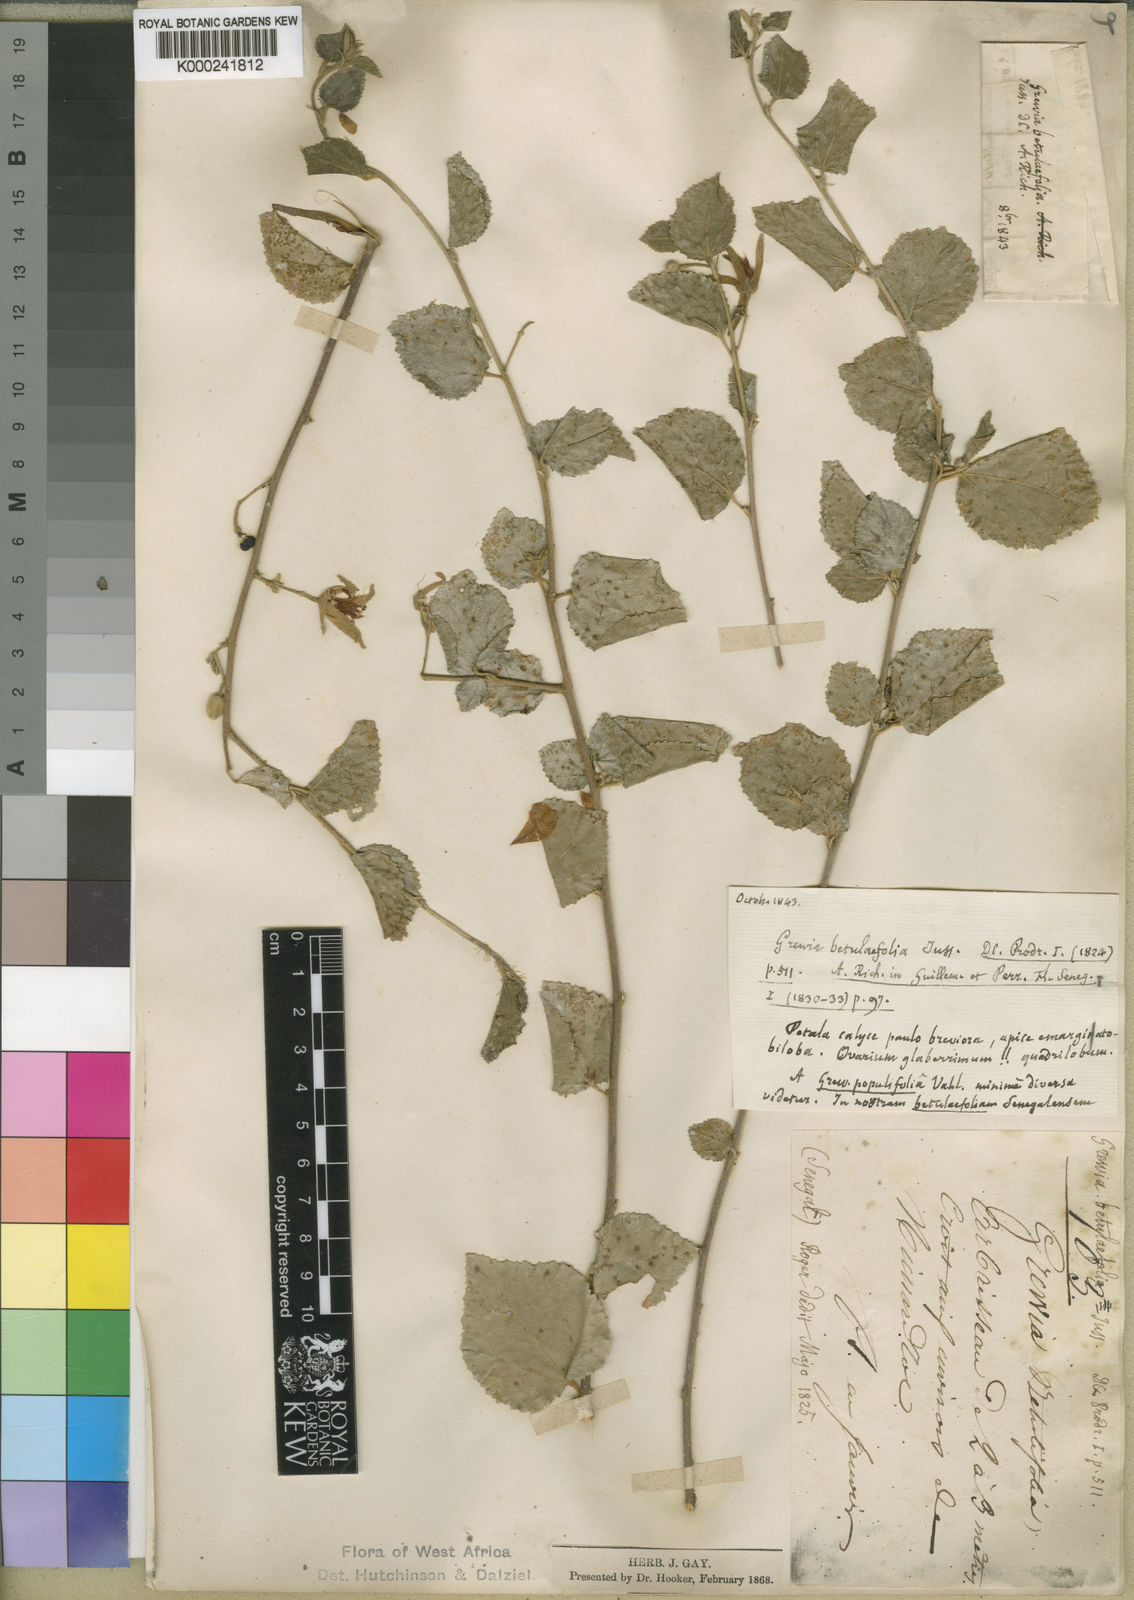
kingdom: Plantae
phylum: Tracheophyta
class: Magnoliopsida
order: Malvales
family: Malvaceae
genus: Grewia
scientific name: Grewia rupestris
